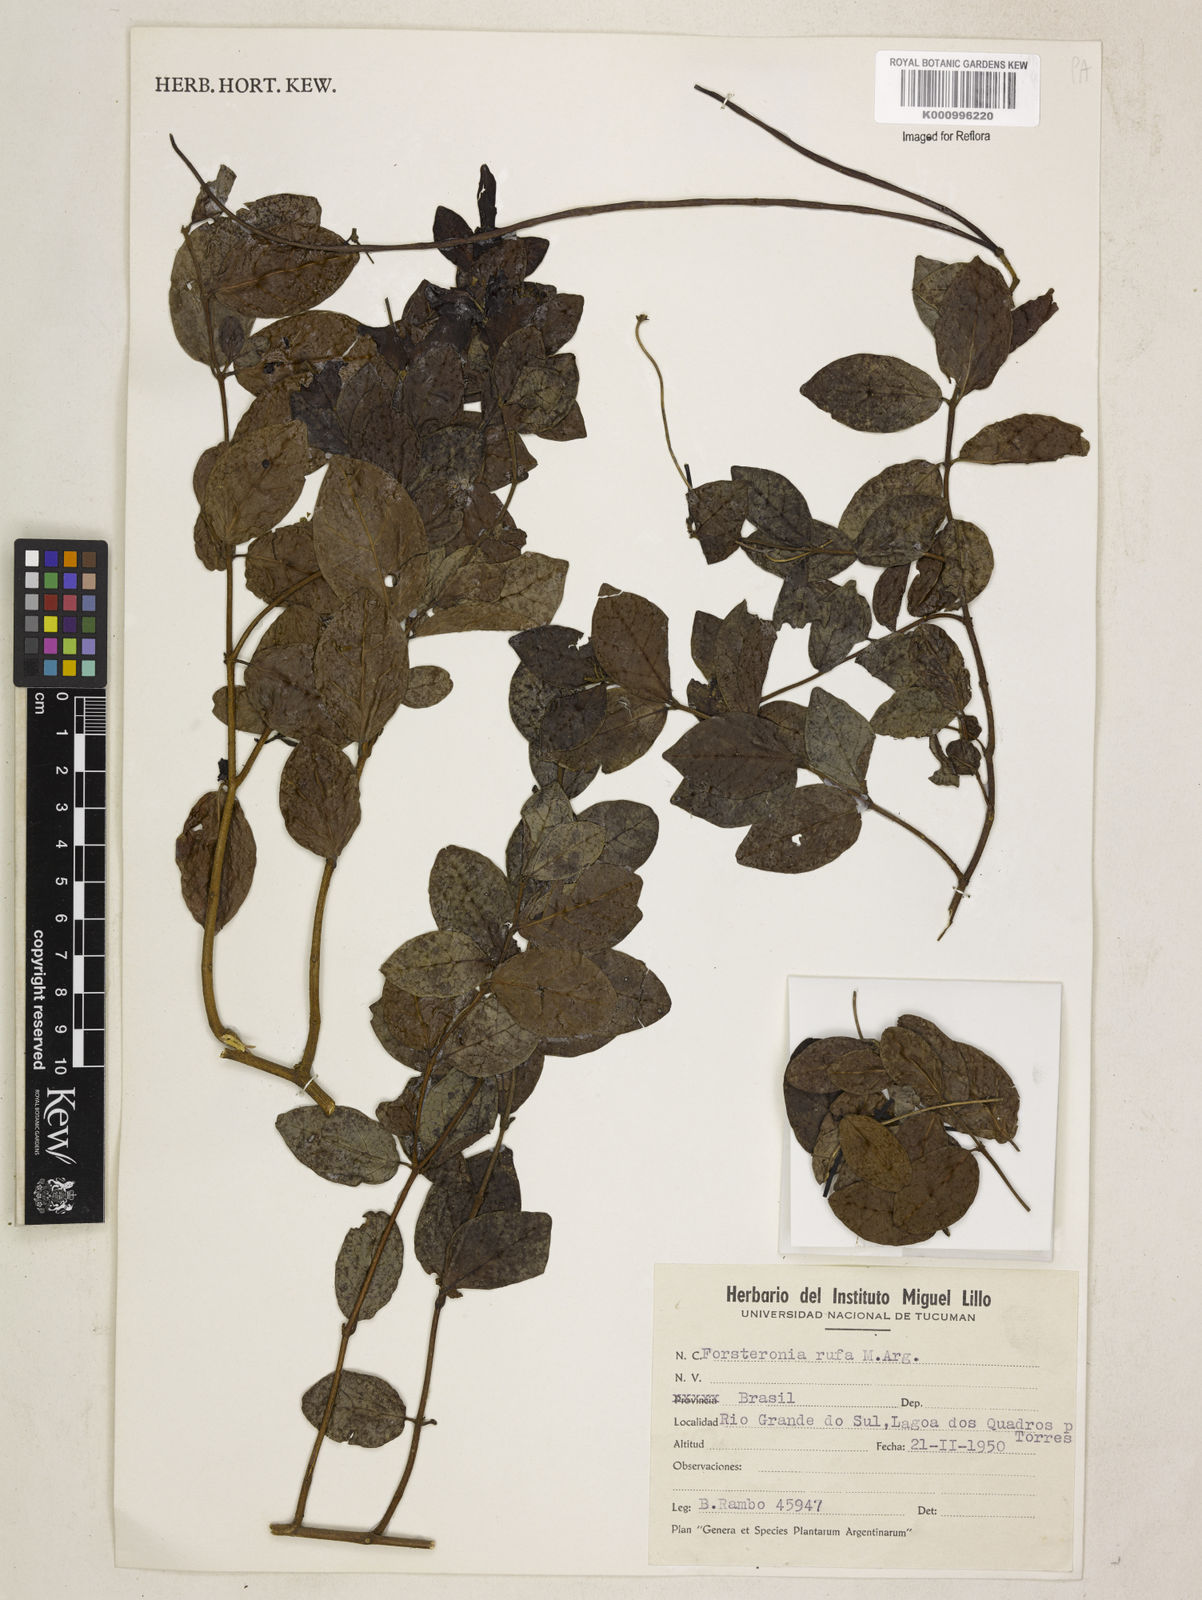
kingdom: Plantae
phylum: Tracheophyta
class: Magnoliopsida
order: Gentianales
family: Apocynaceae
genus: Forsteronia
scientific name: Forsteronia
